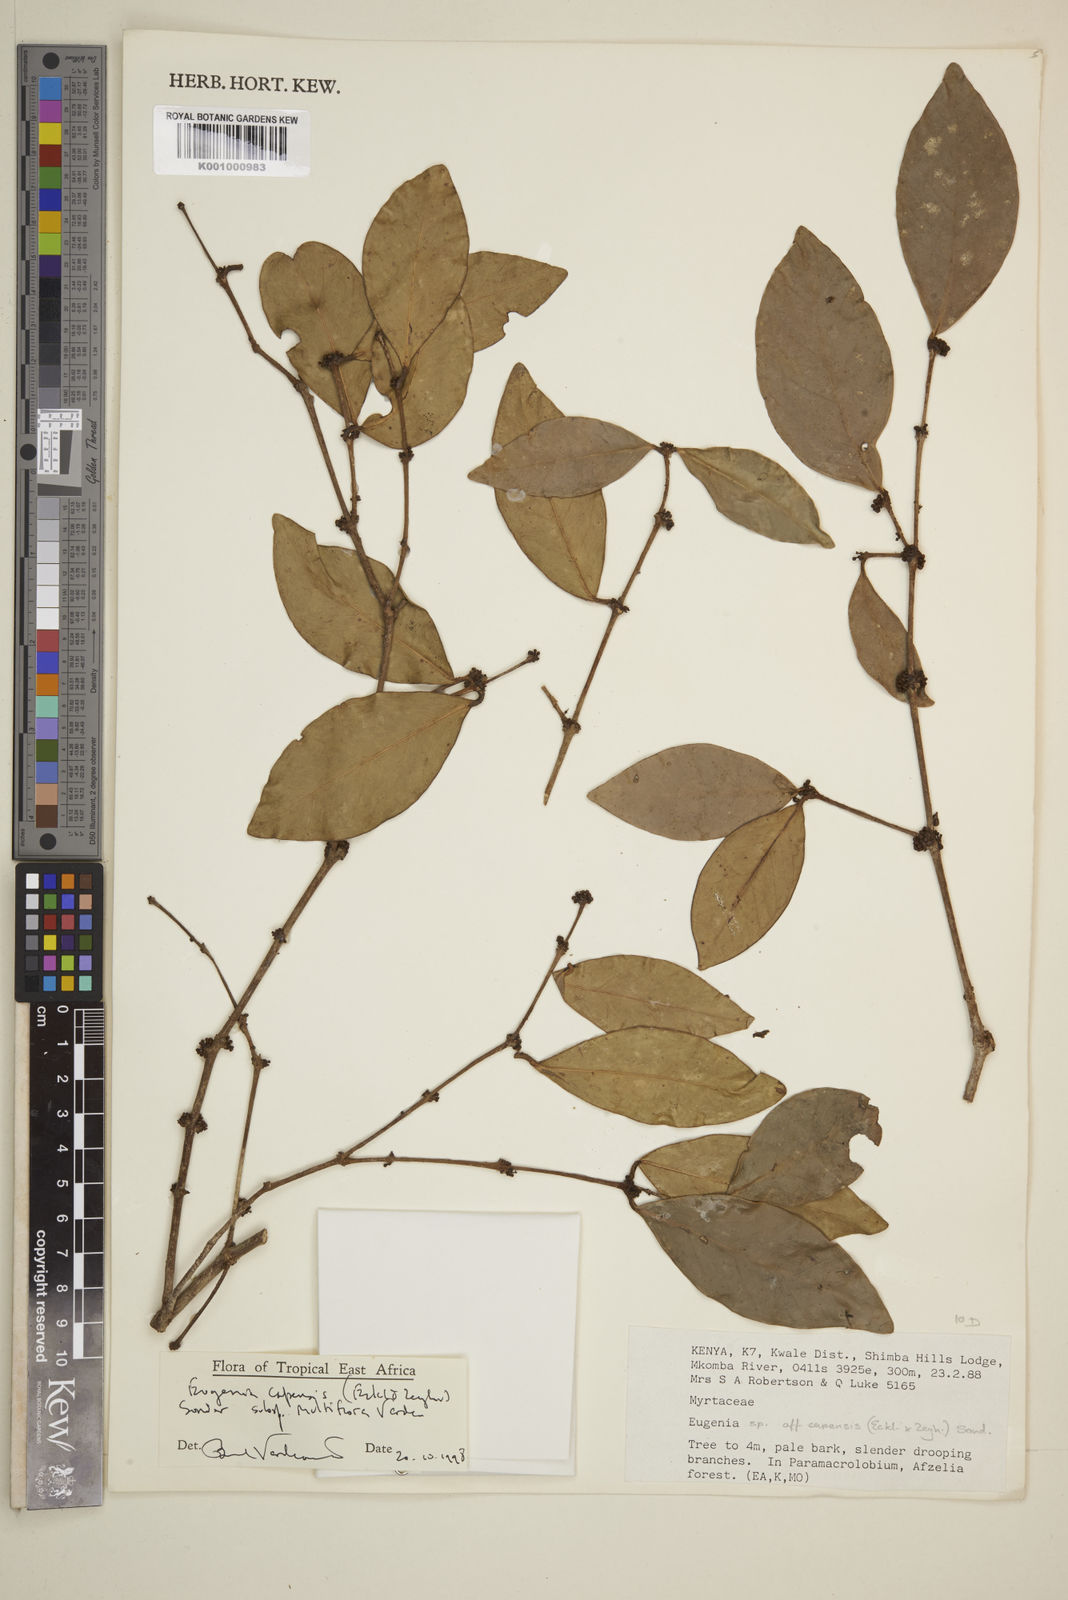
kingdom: Plantae
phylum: Tracheophyta
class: Magnoliopsida
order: Myrtales
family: Myrtaceae
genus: Eugenia
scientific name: Eugenia capensis
